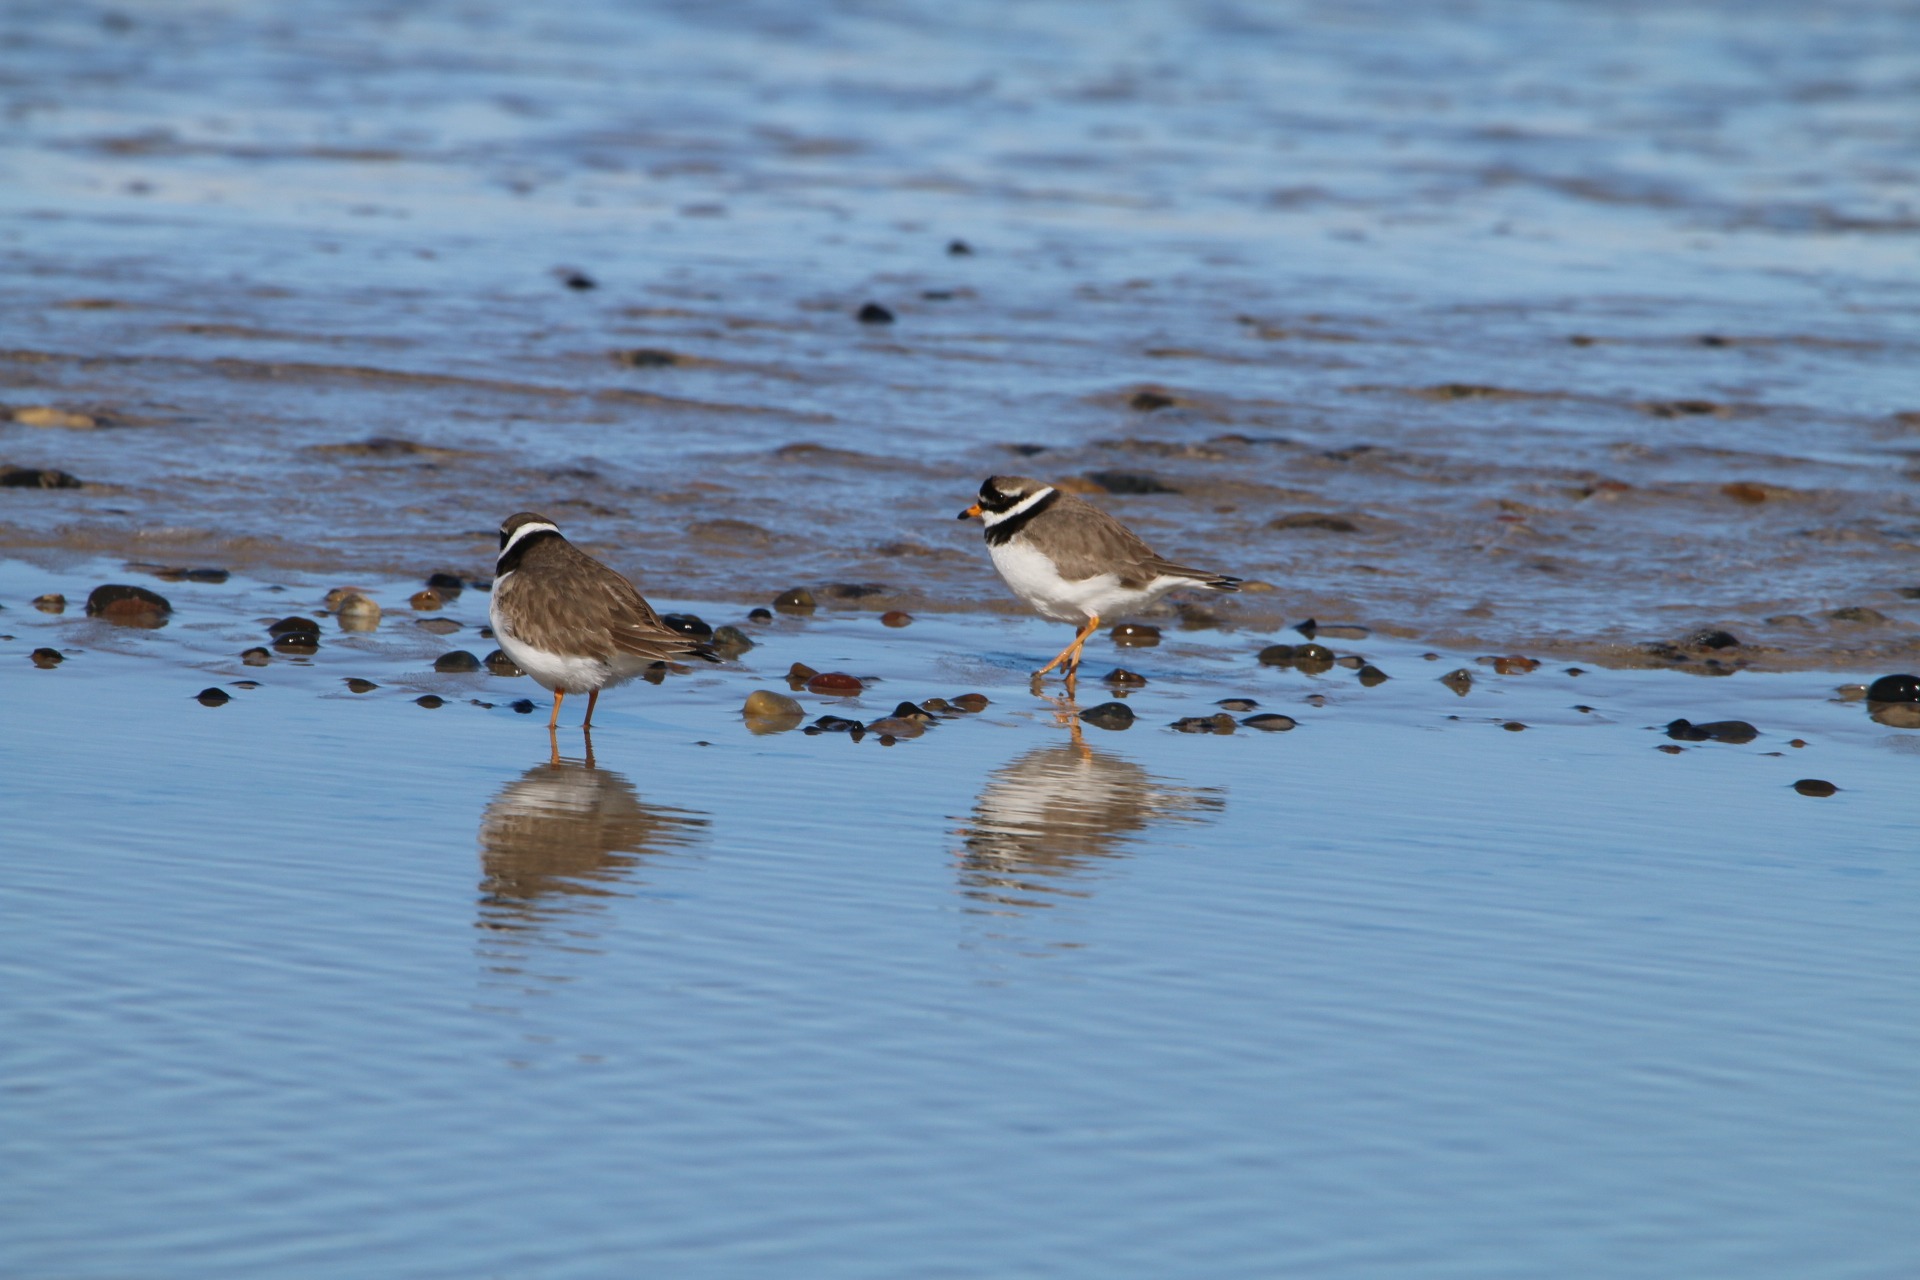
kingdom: Animalia
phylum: Chordata
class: Aves
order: Charadriiformes
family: Charadriidae
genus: Charadrius
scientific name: Charadrius hiaticula
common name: Stor præstekrave
